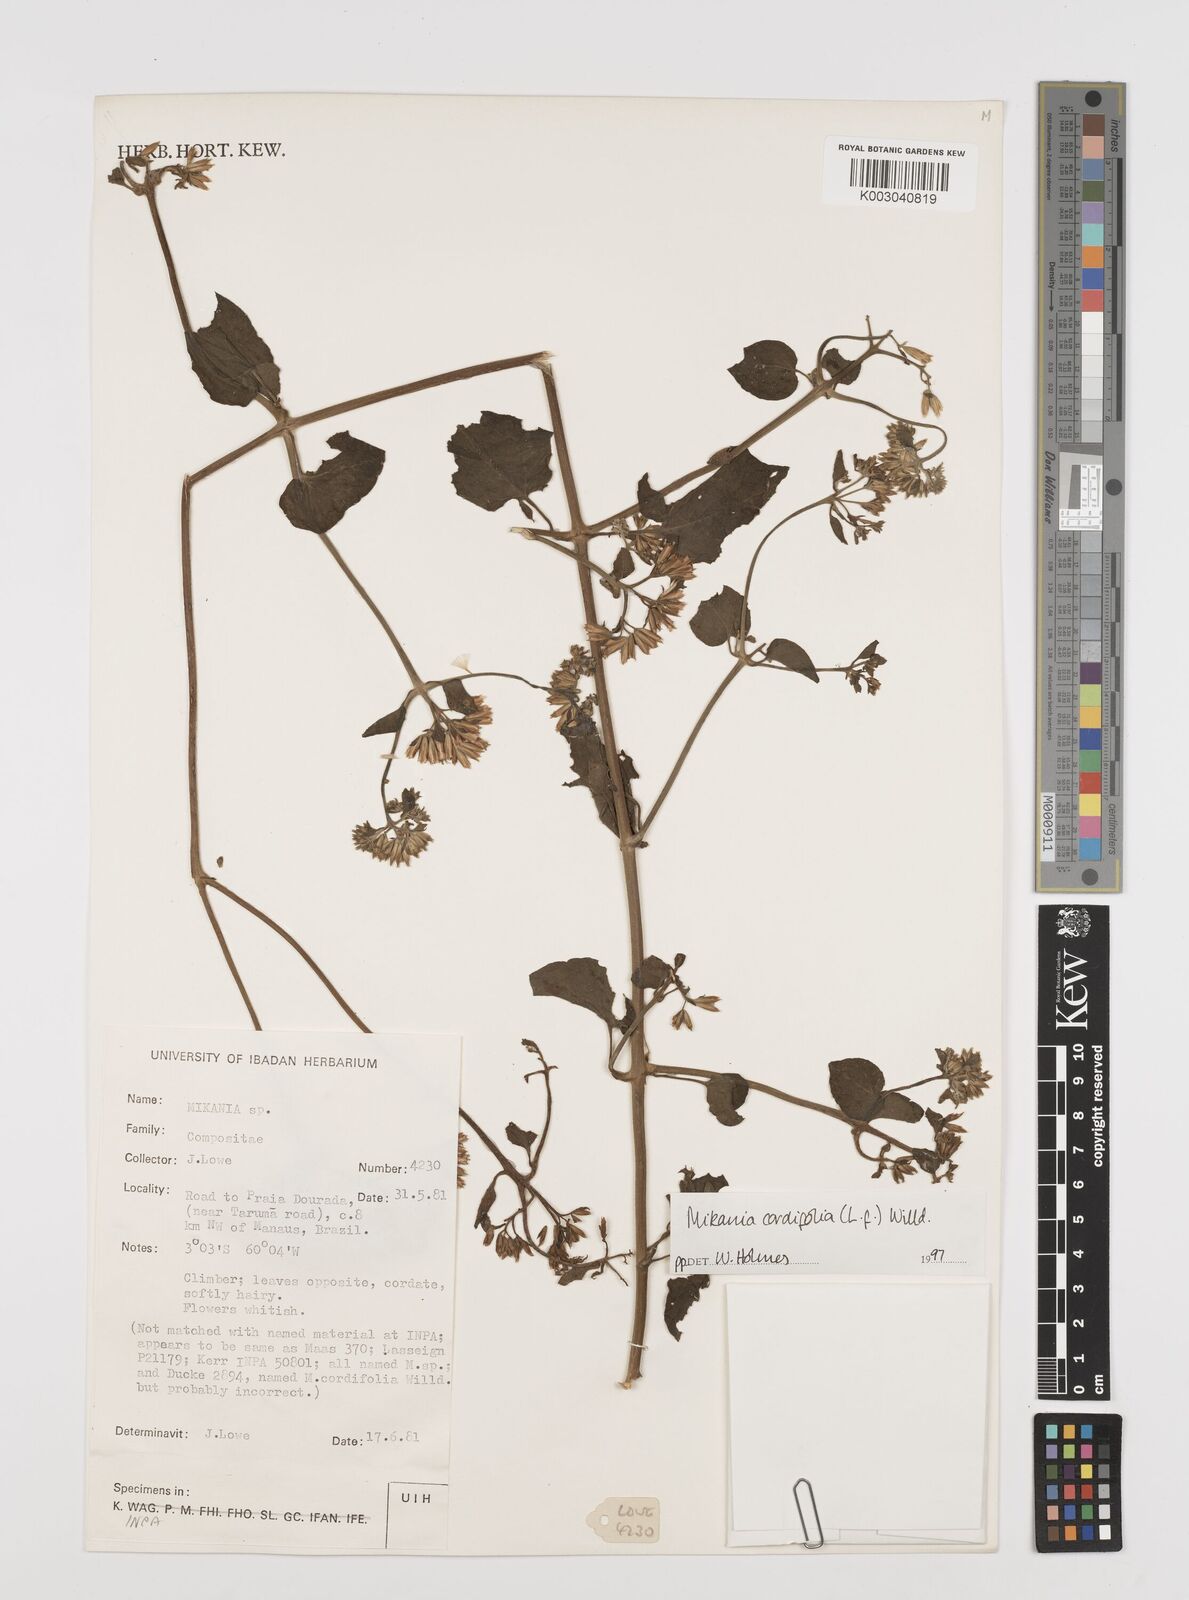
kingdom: Plantae
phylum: Tracheophyta
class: Magnoliopsida
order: Asterales
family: Asteraceae
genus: Mikania
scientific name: Mikania cordifolia
